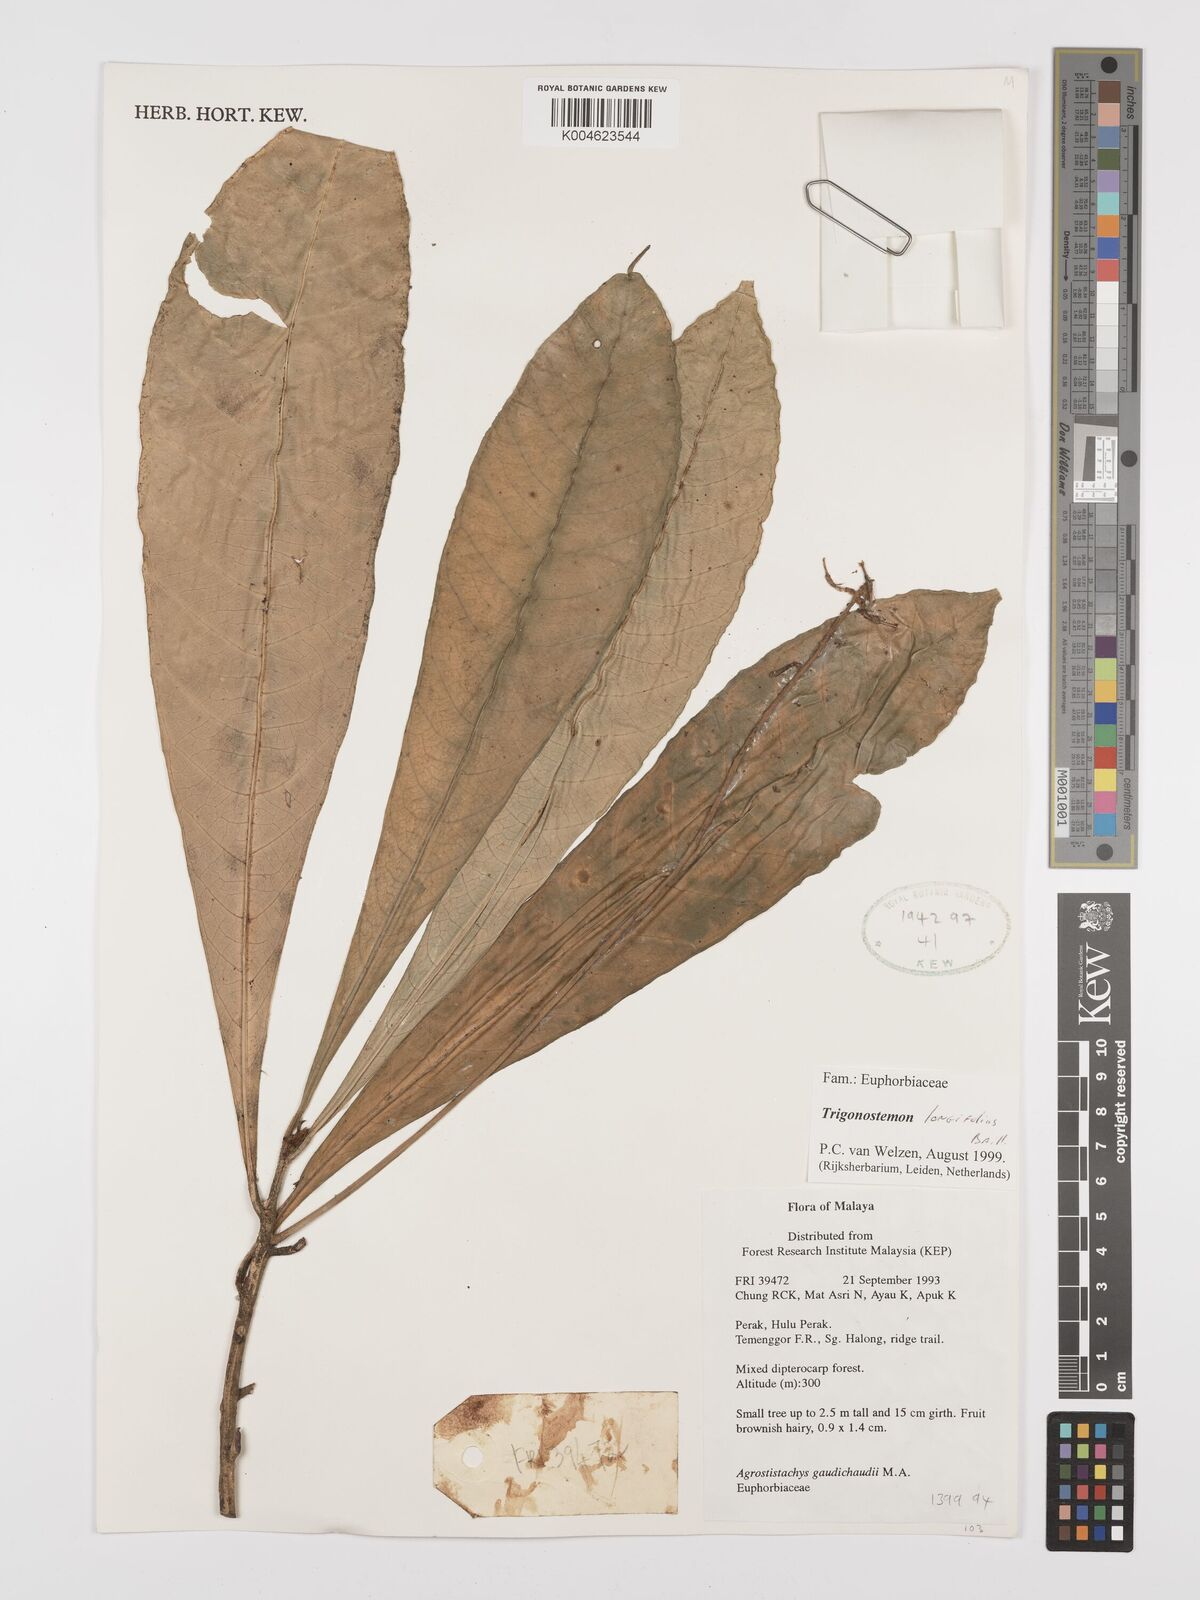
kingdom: Plantae
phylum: Tracheophyta
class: Magnoliopsida
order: Malpighiales
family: Euphorbiaceae
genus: Trigonostemon
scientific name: Trigonostemon longifolius
